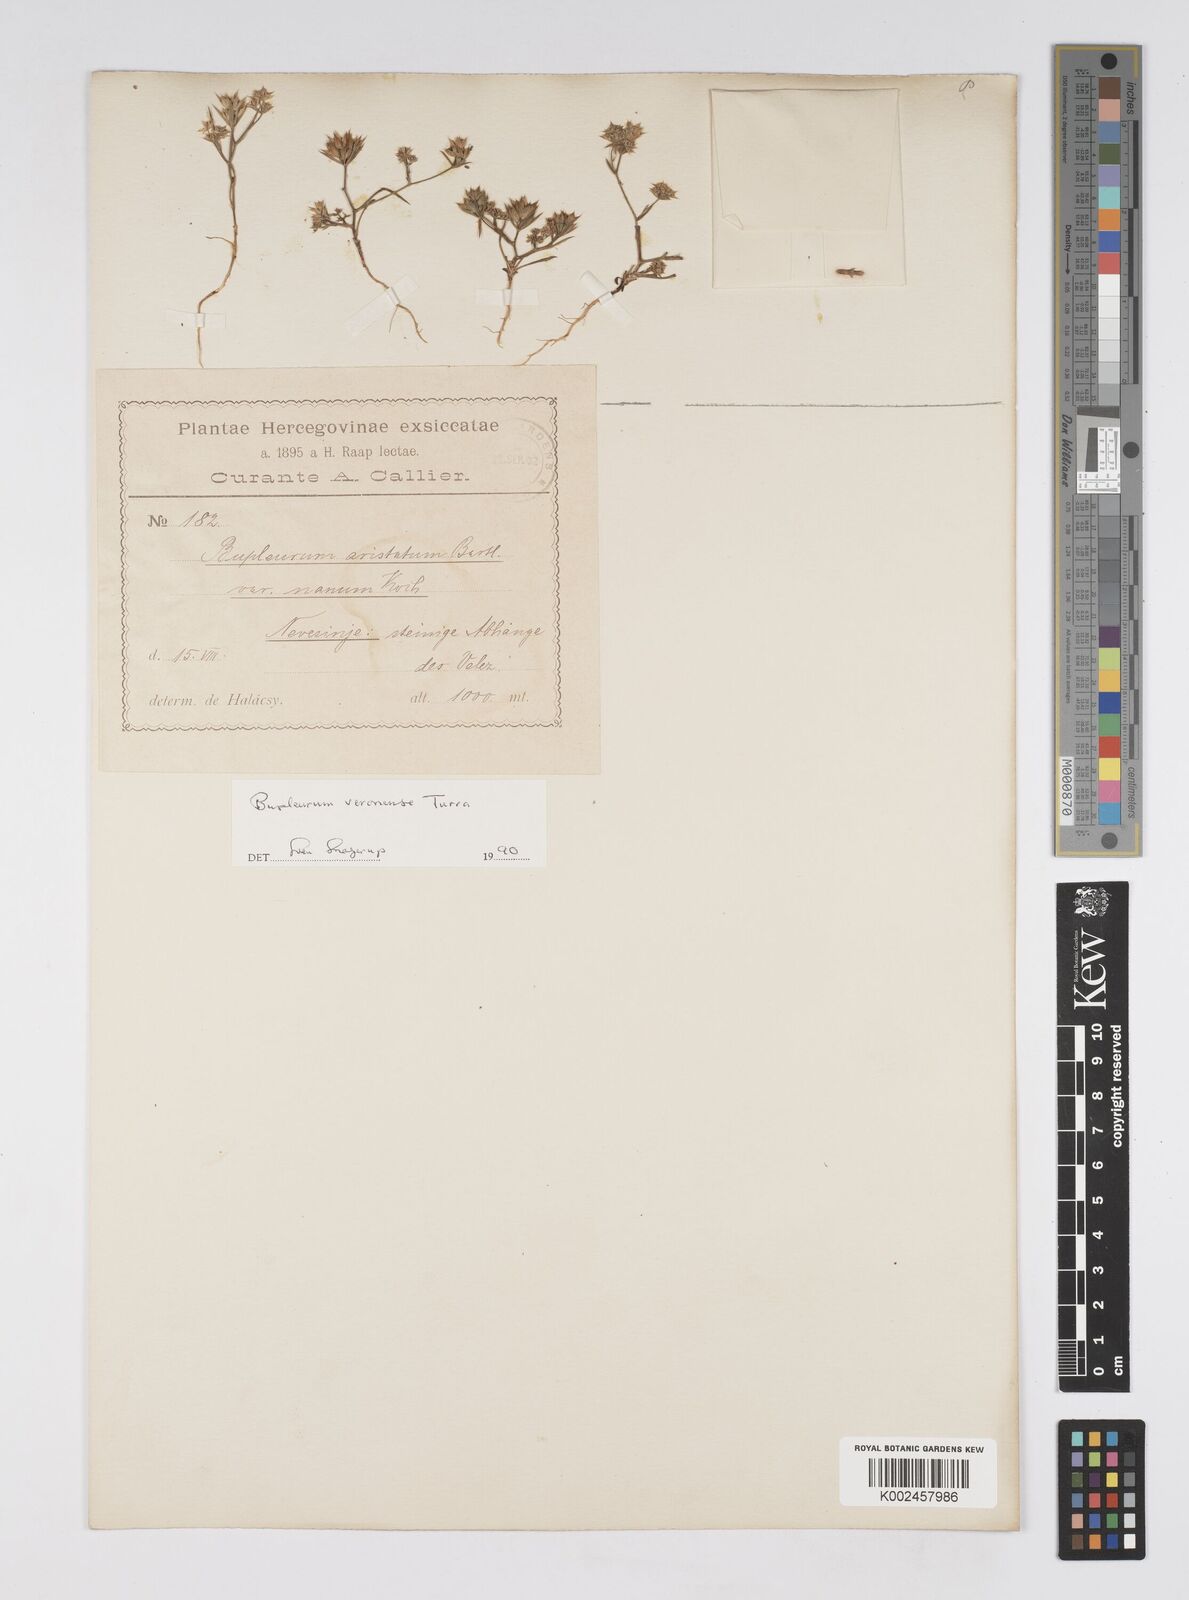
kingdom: Plantae
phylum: Tracheophyta
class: Magnoliopsida
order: Apiales
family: Apiaceae
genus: Bupleurum
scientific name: Bupleurum glumaceum
